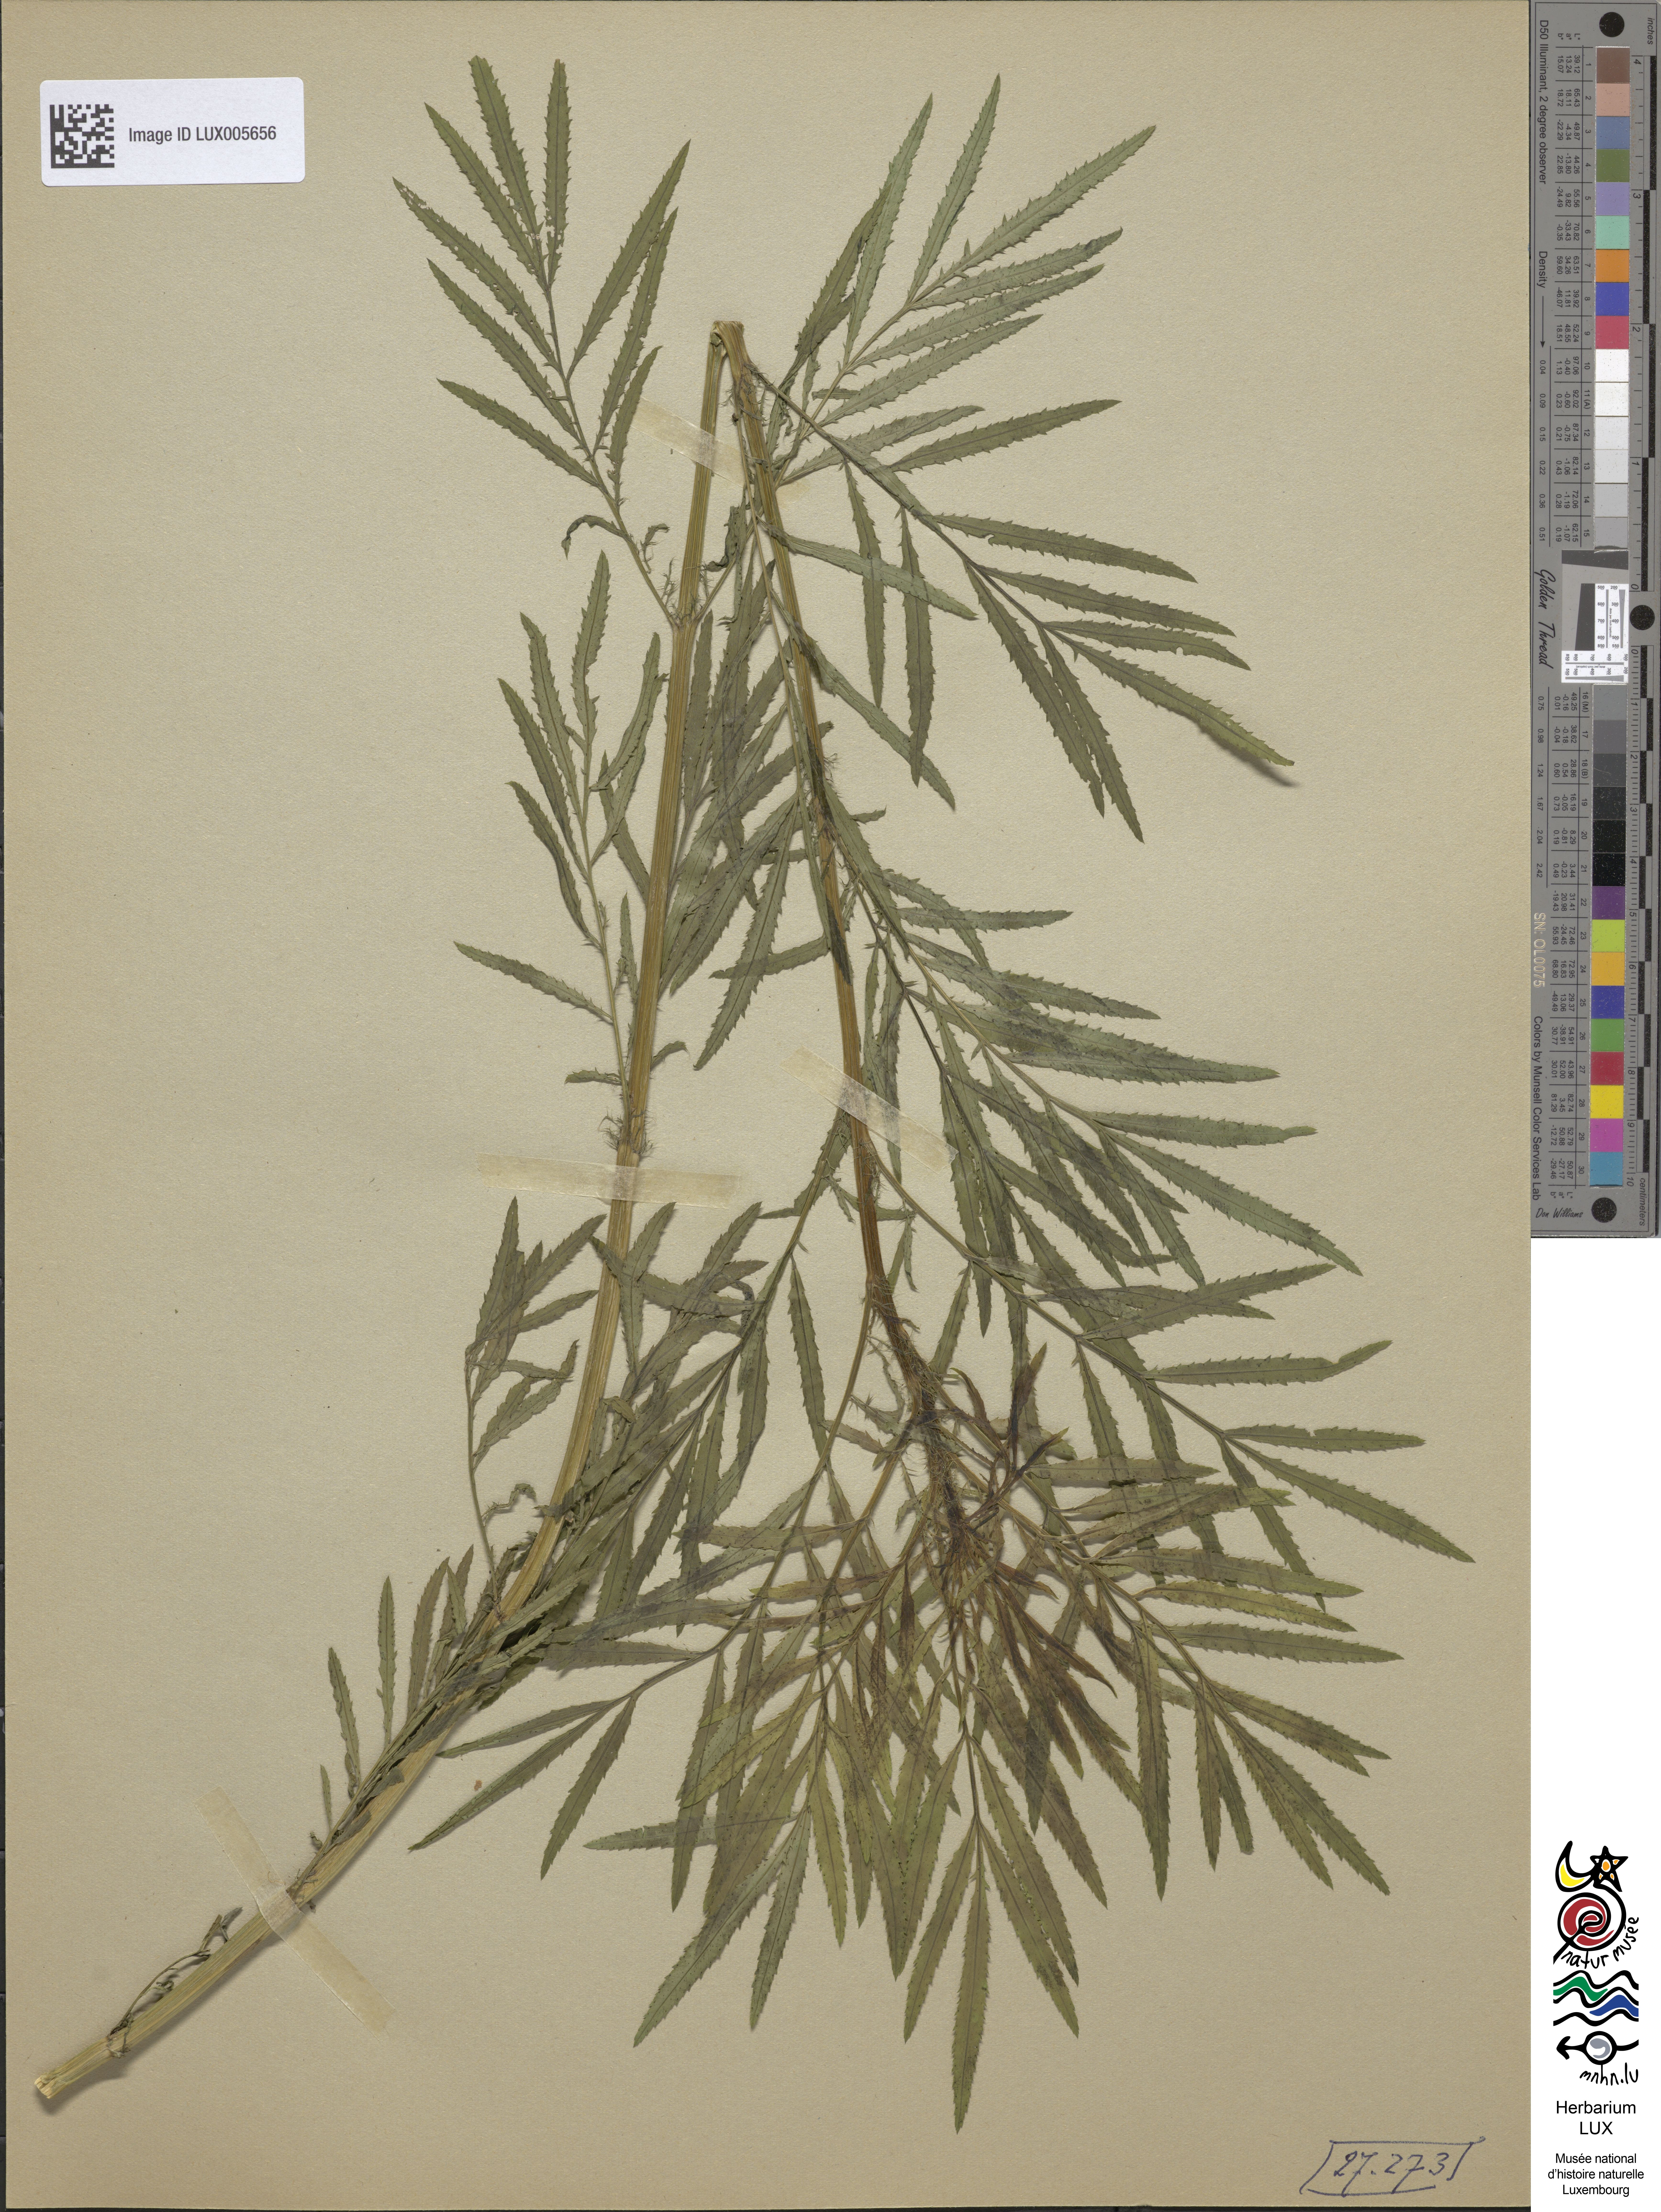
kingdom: Plantae
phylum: Tracheophyta
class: Magnoliopsida
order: Asterales
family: Asteraceae
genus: Tagetes
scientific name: Tagetes minuta
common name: Muster john henry
